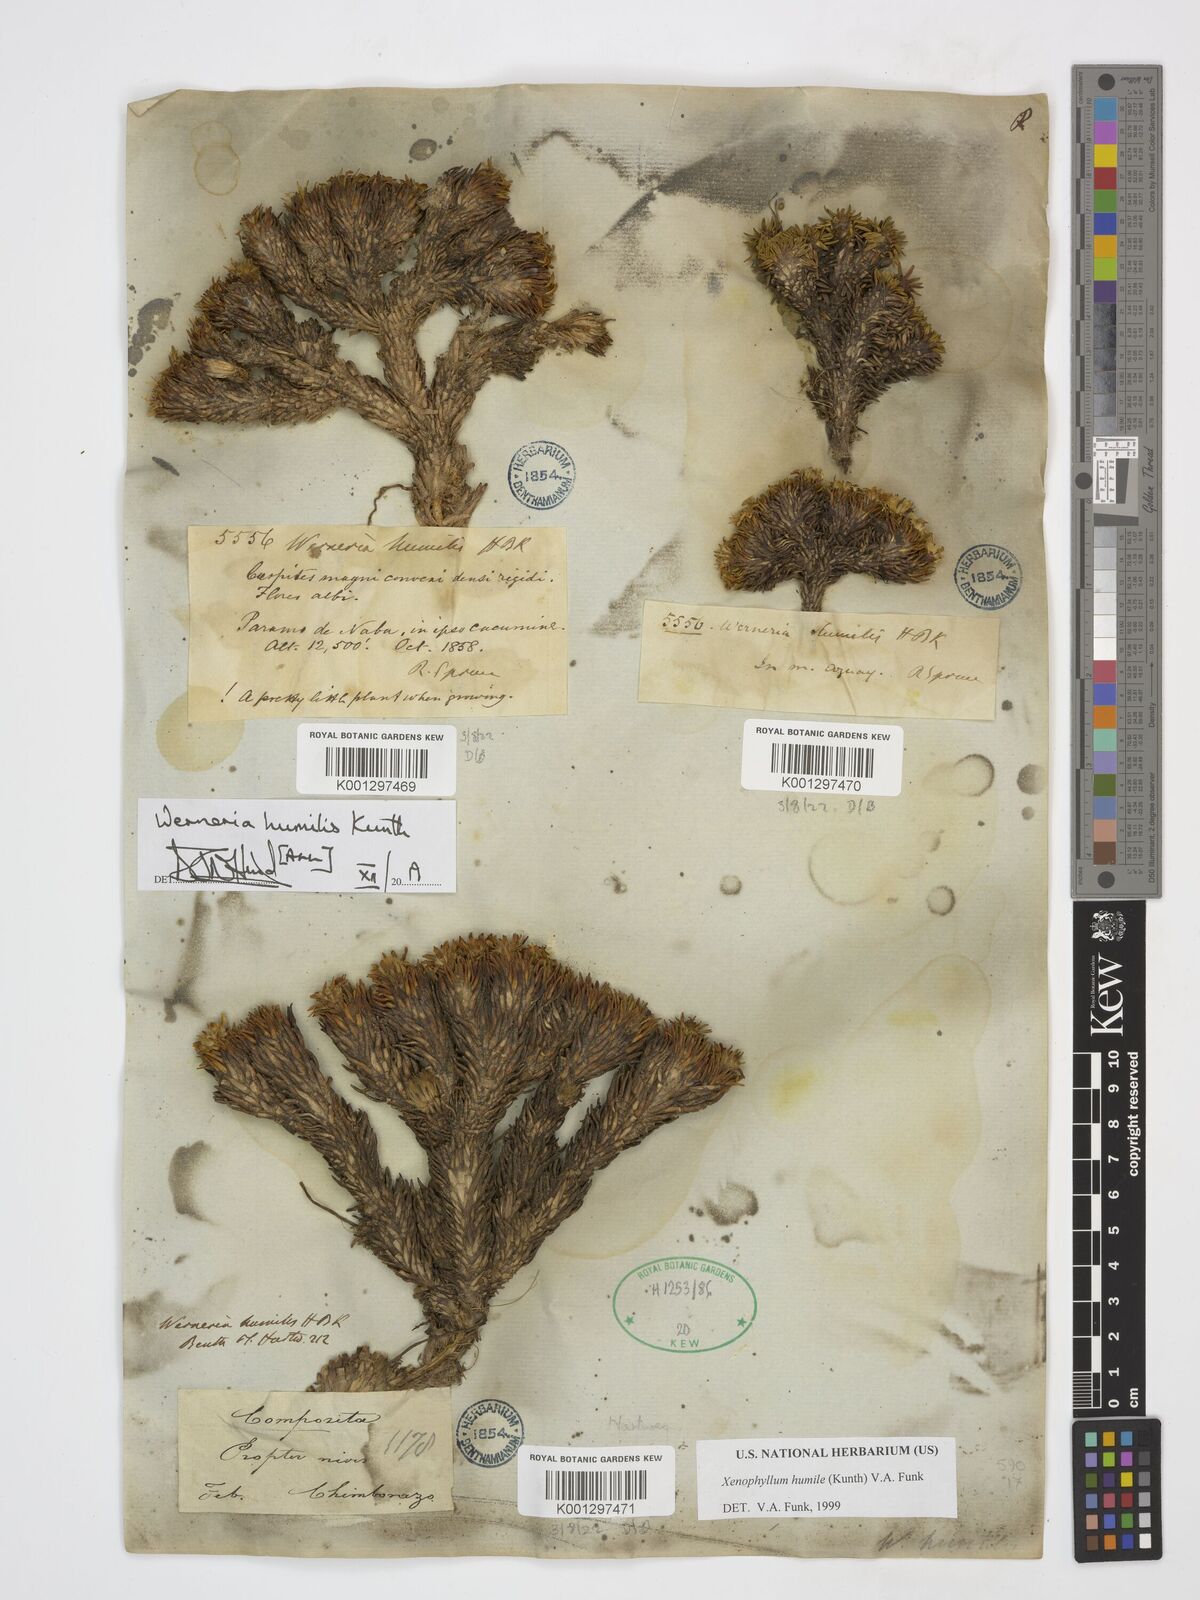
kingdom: Plantae
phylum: Tracheophyta
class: Magnoliopsida
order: Asterales
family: Asteraceae
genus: Werneria
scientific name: Werneria humilis
